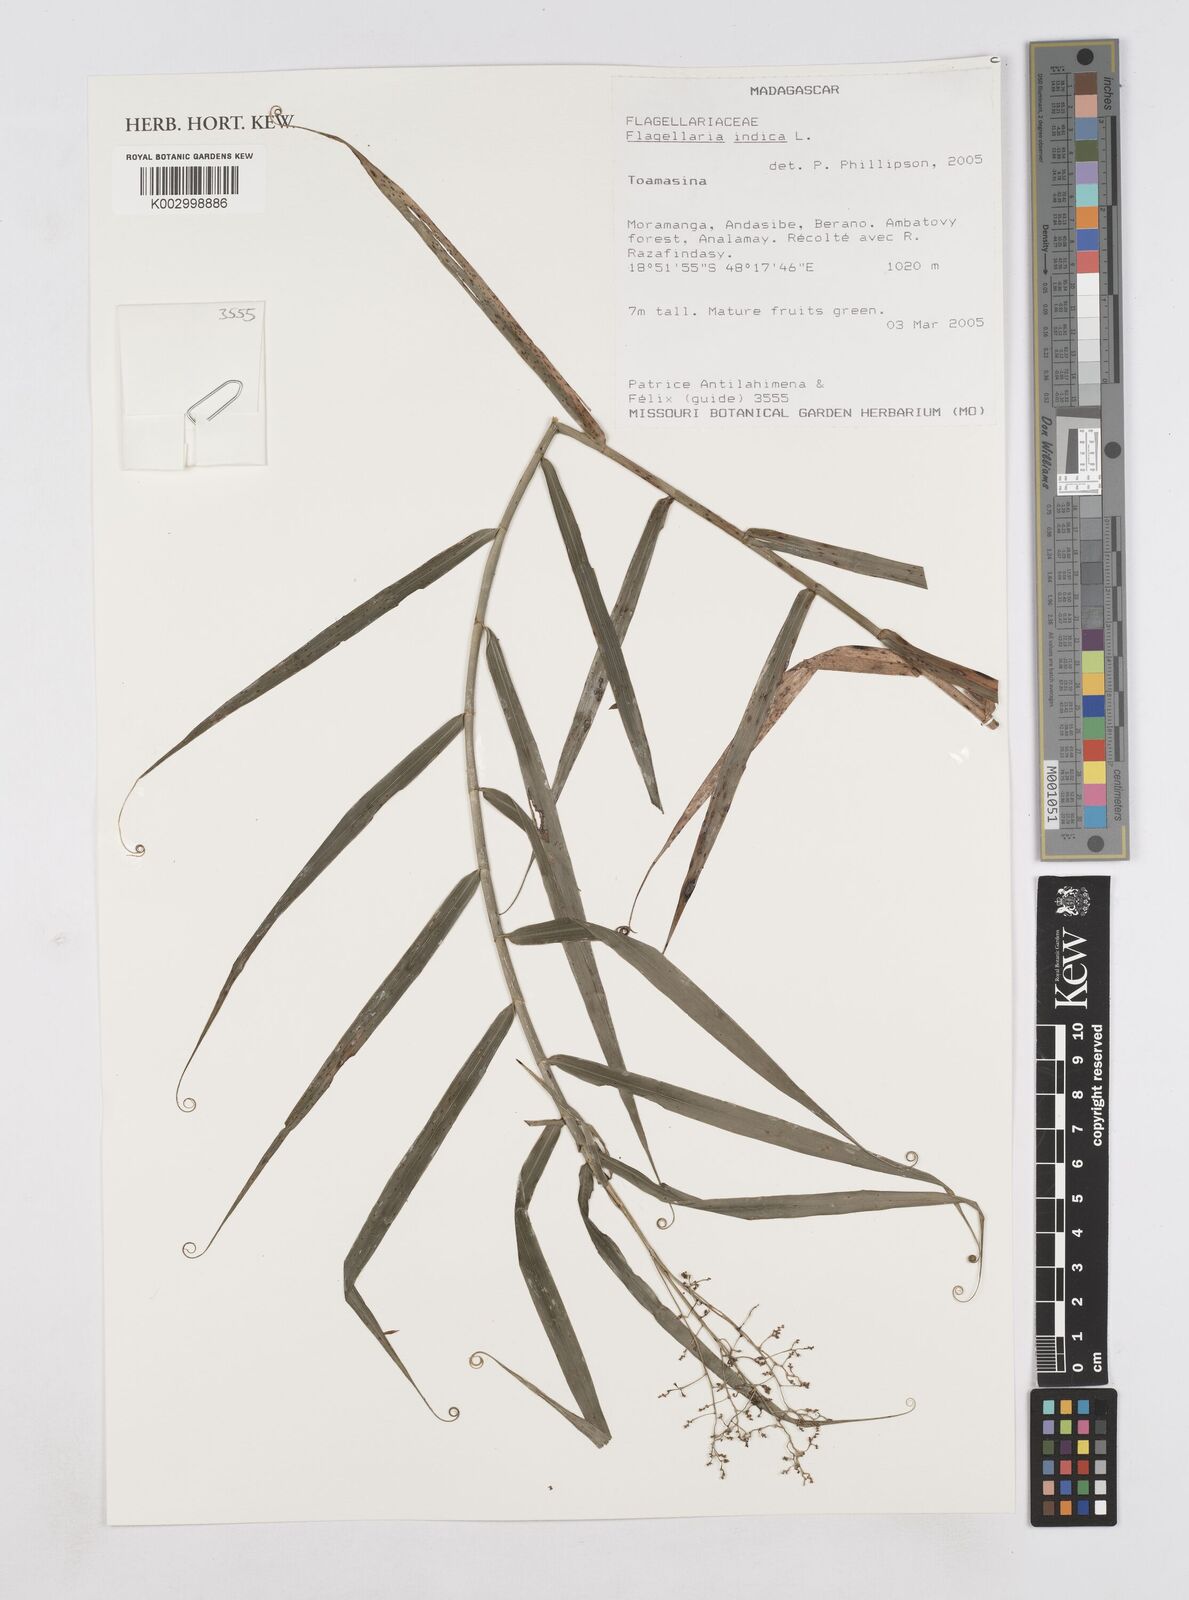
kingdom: Plantae
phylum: Tracheophyta
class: Liliopsida
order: Poales
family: Flagellariaceae
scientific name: Flagellariaceae
